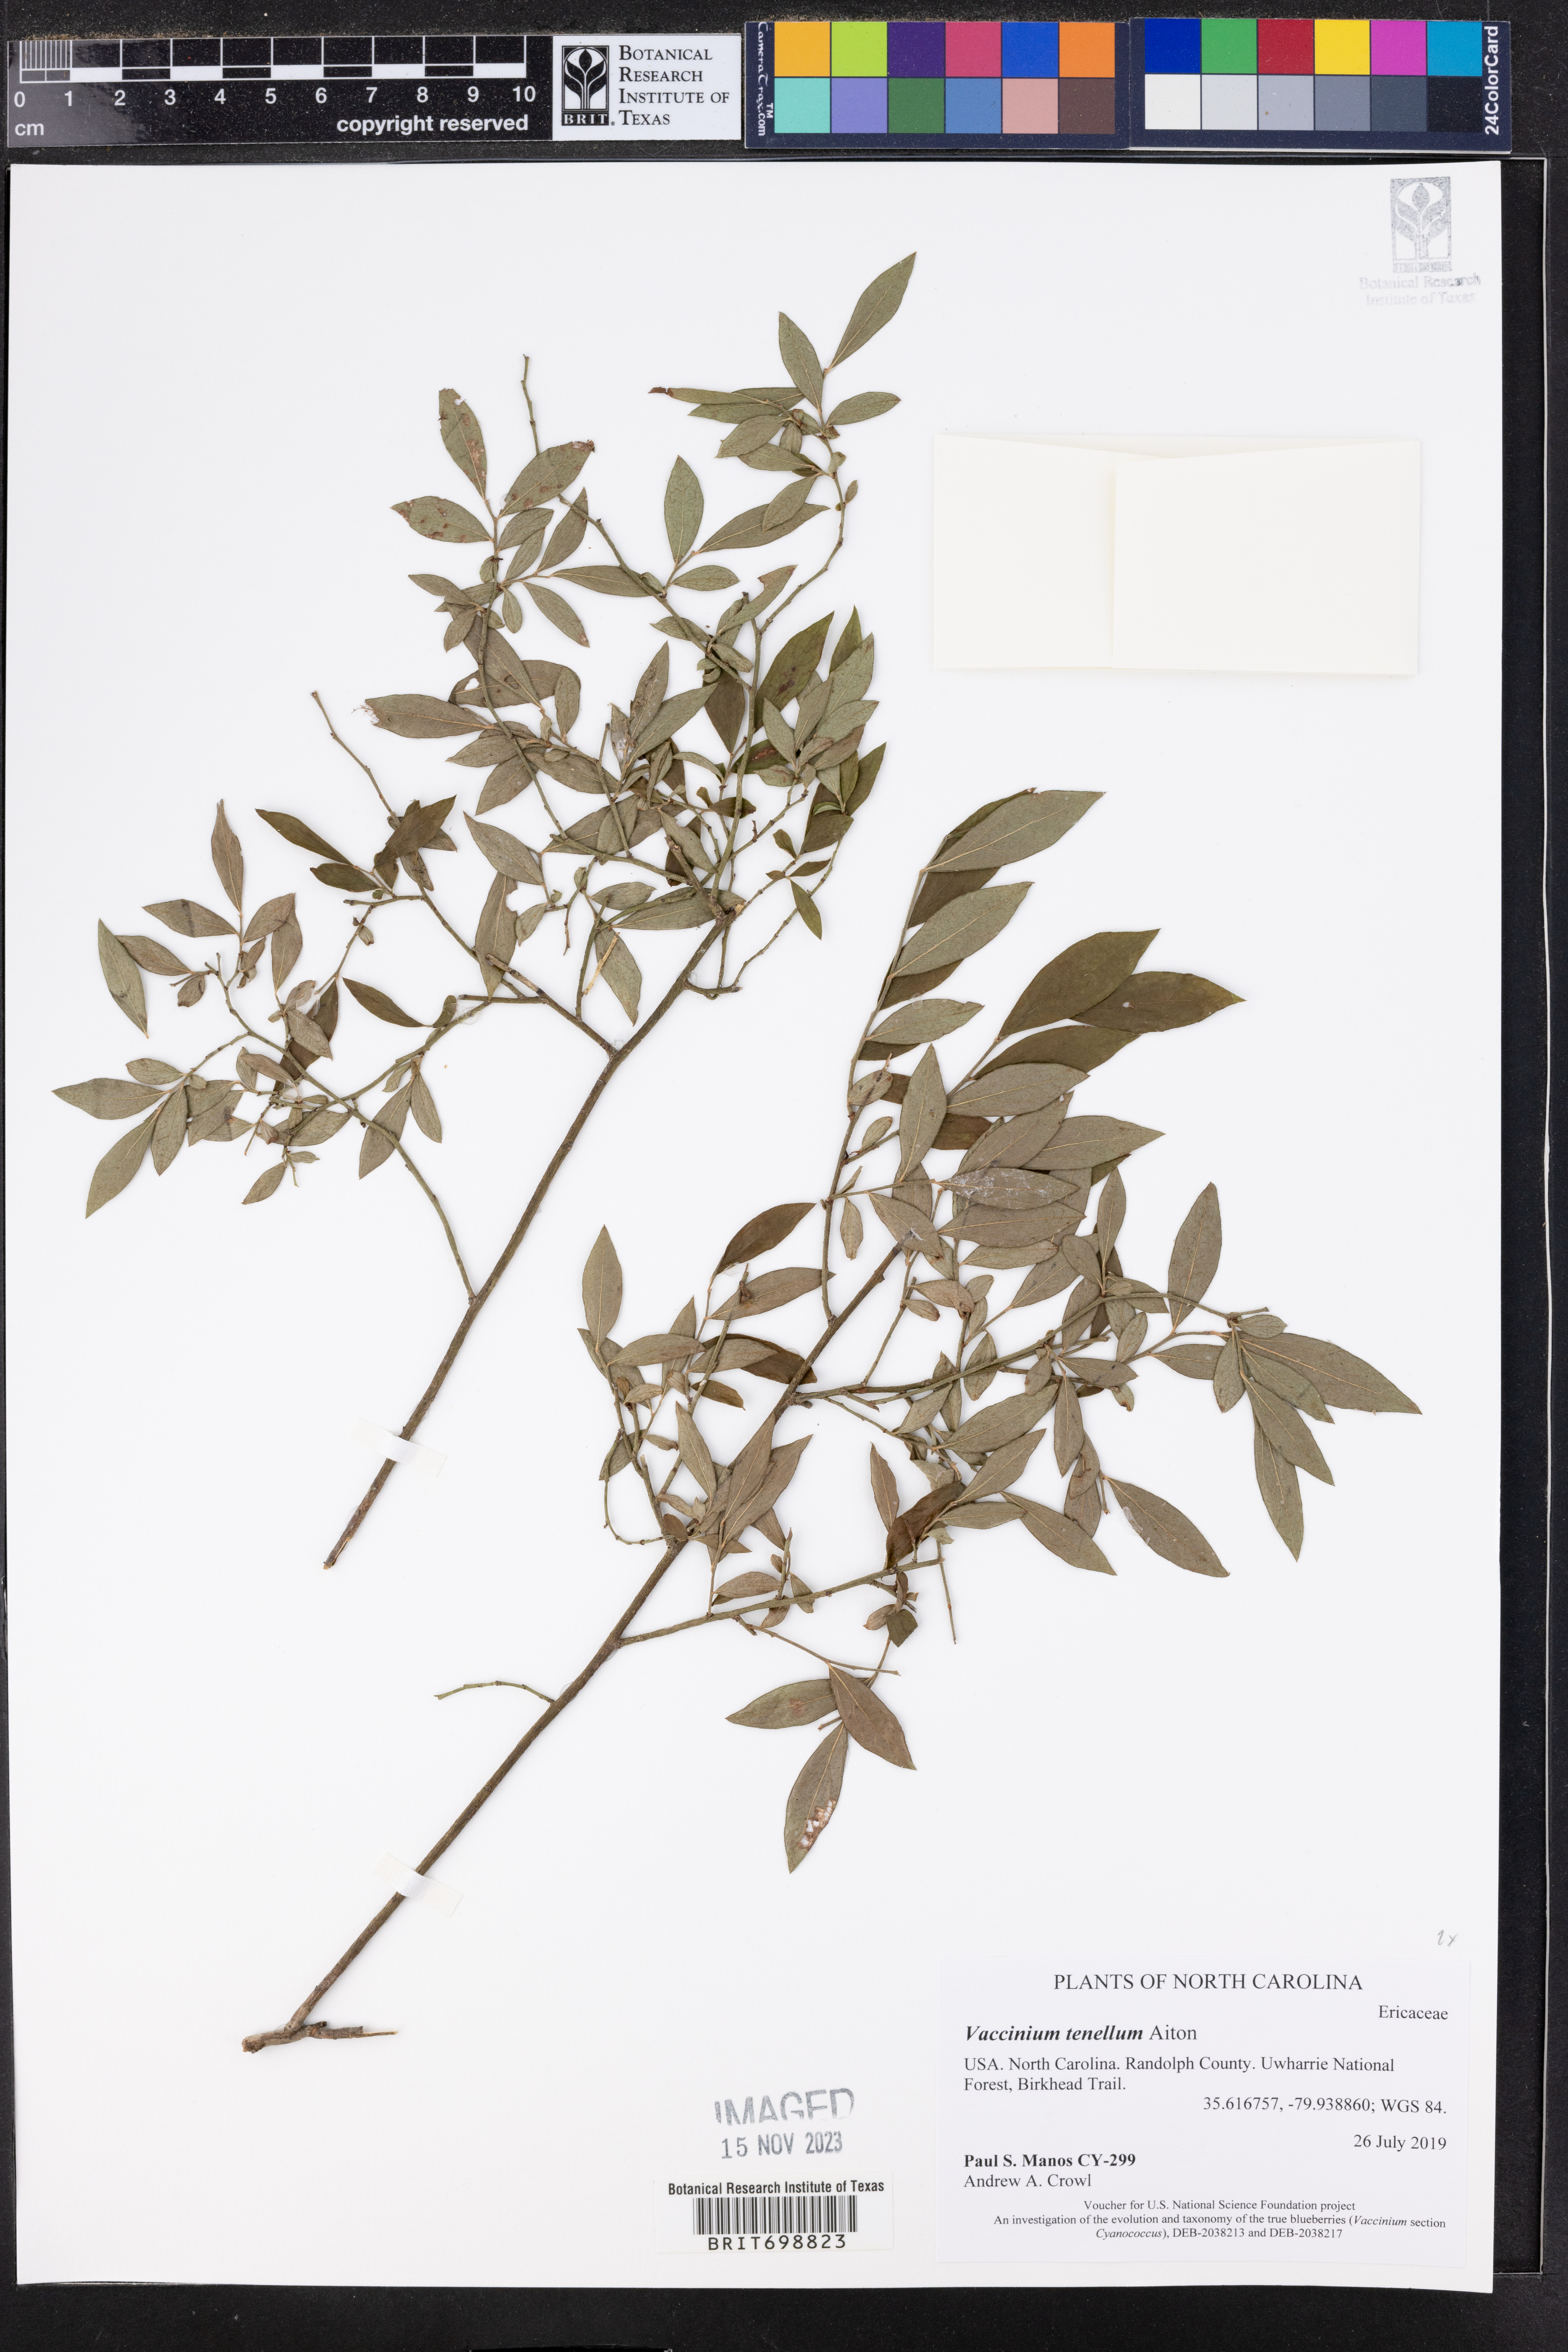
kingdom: Plantae
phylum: Tracheophyta
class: Magnoliopsida
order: Ericales
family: Ericaceae
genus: Vaccinium
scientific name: Vaccinium tenellum
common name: Southern blueberry
